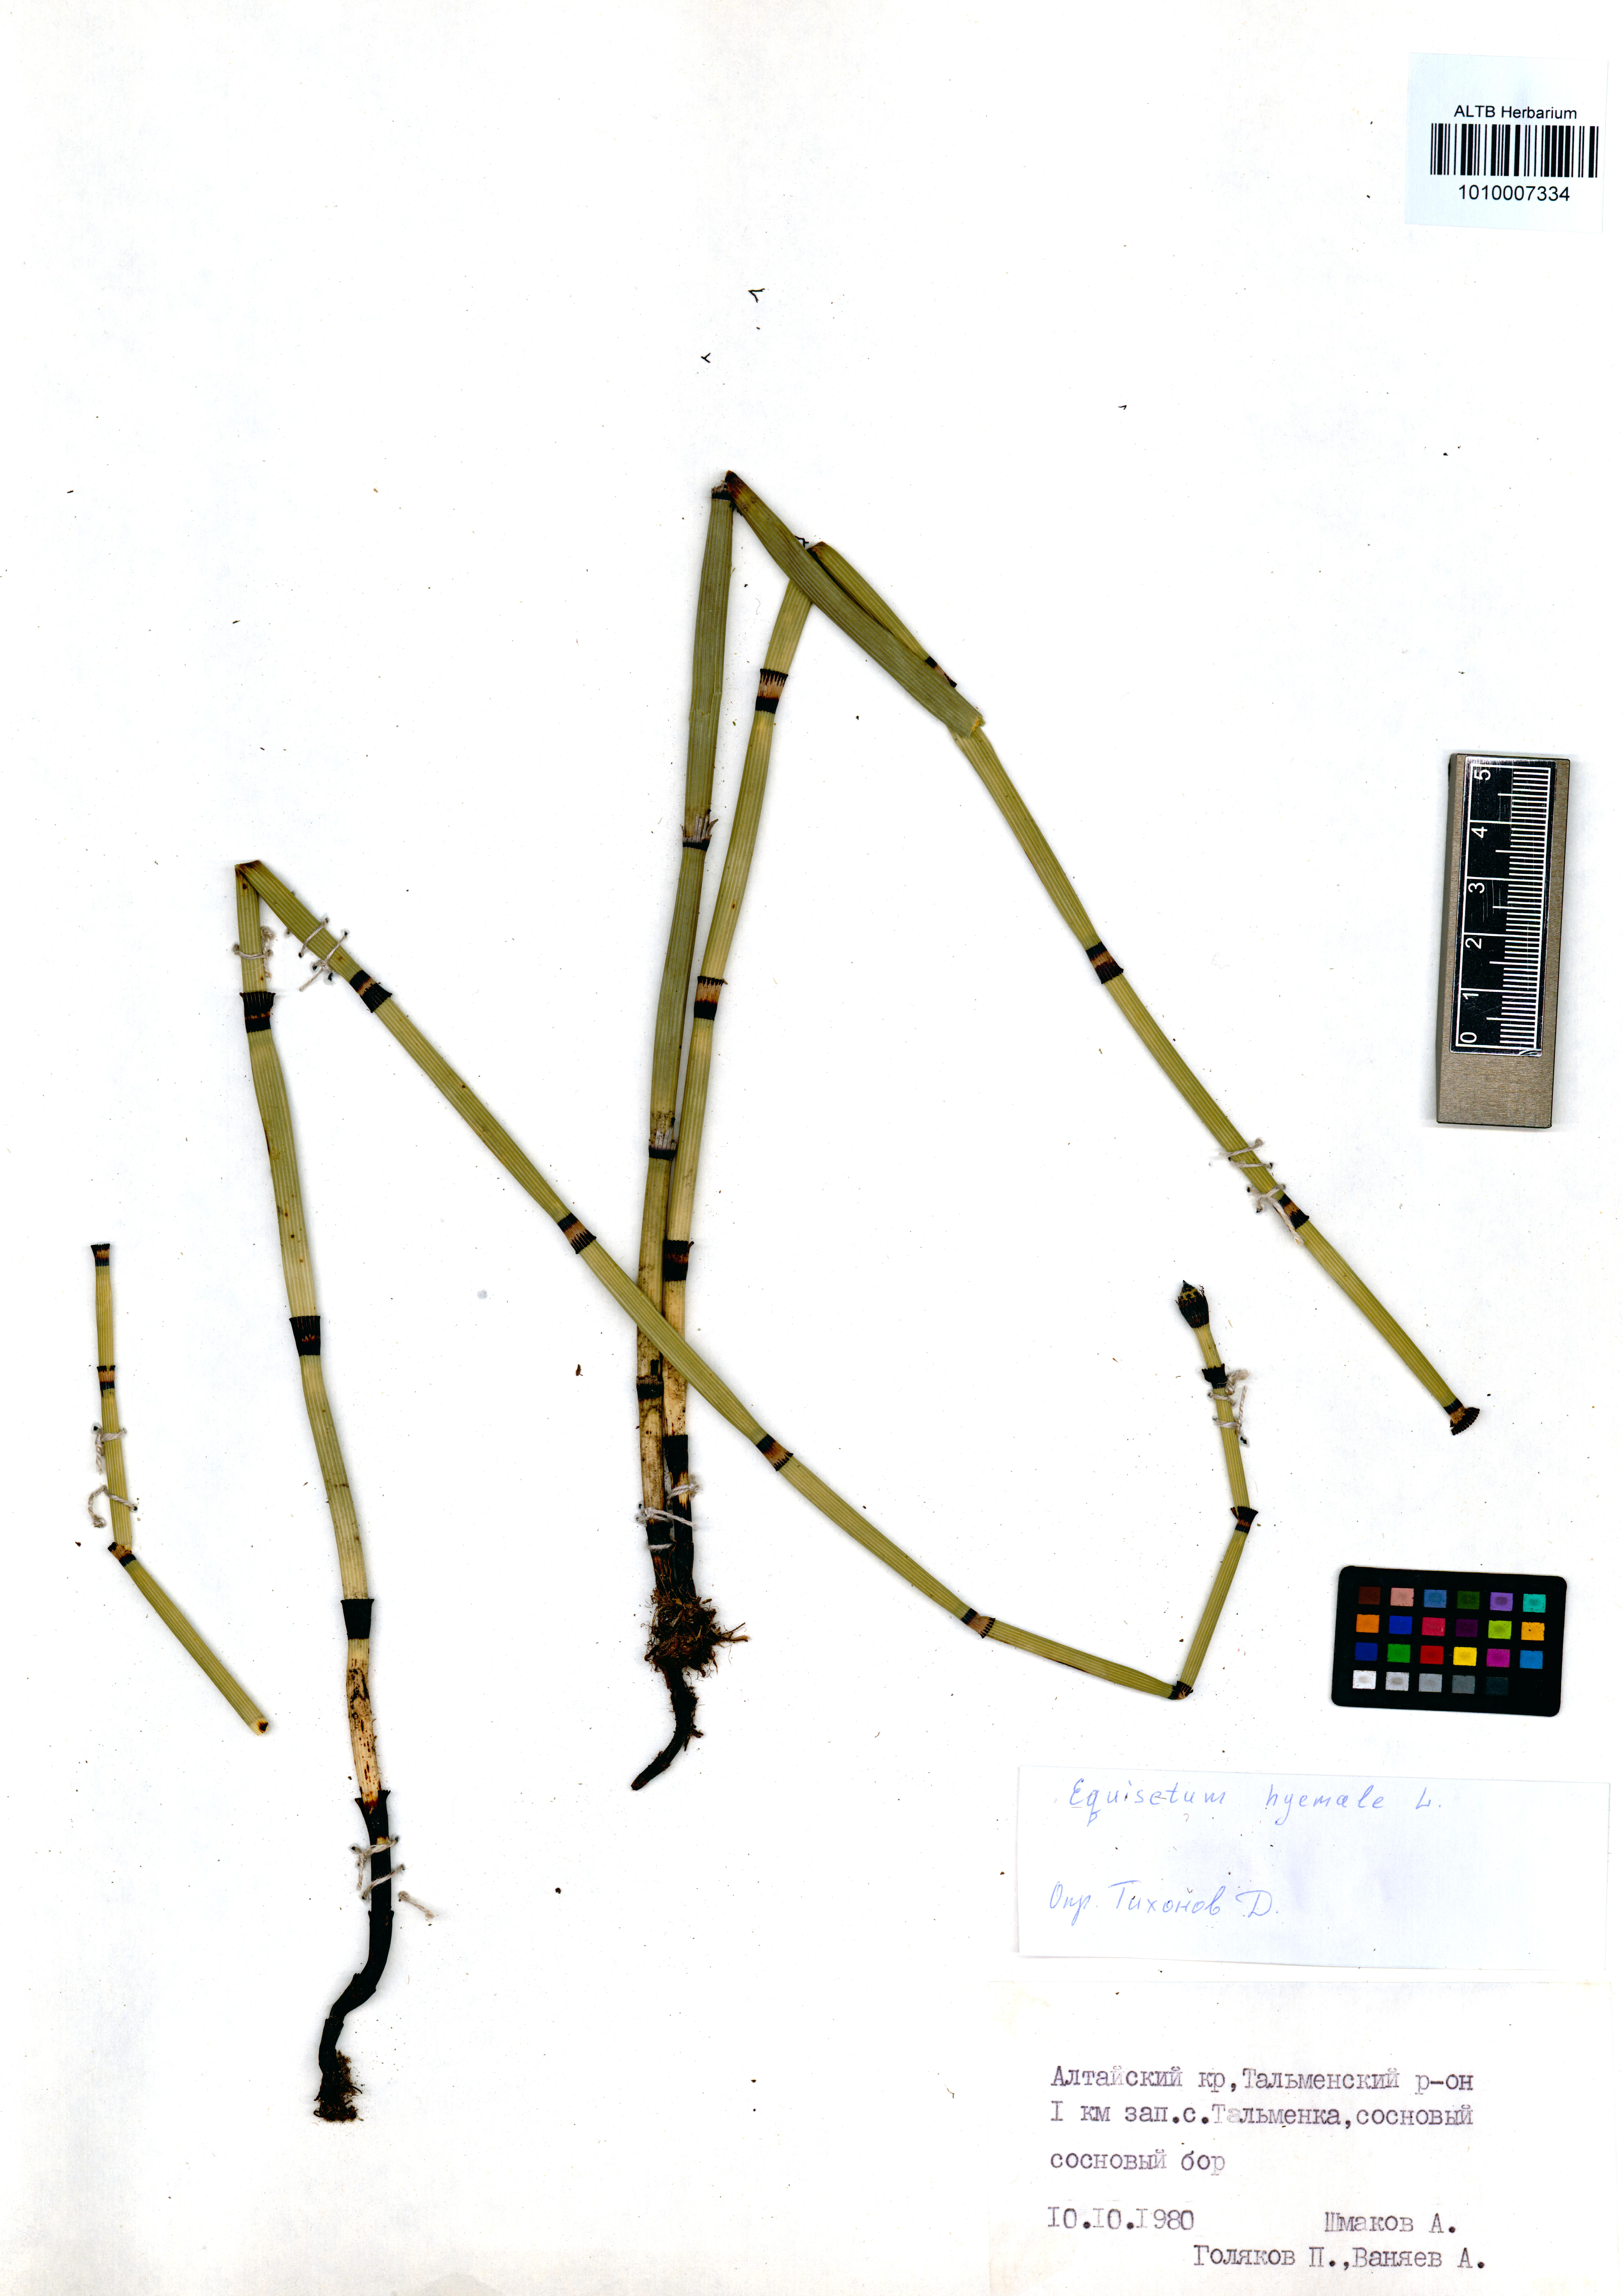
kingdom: Plantae
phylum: Tracheophyta
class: Polypodiopsida
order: Equisetales
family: Equisetaceae
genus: Equisetum
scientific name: Equisetum hyemale
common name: Rough horsetail
